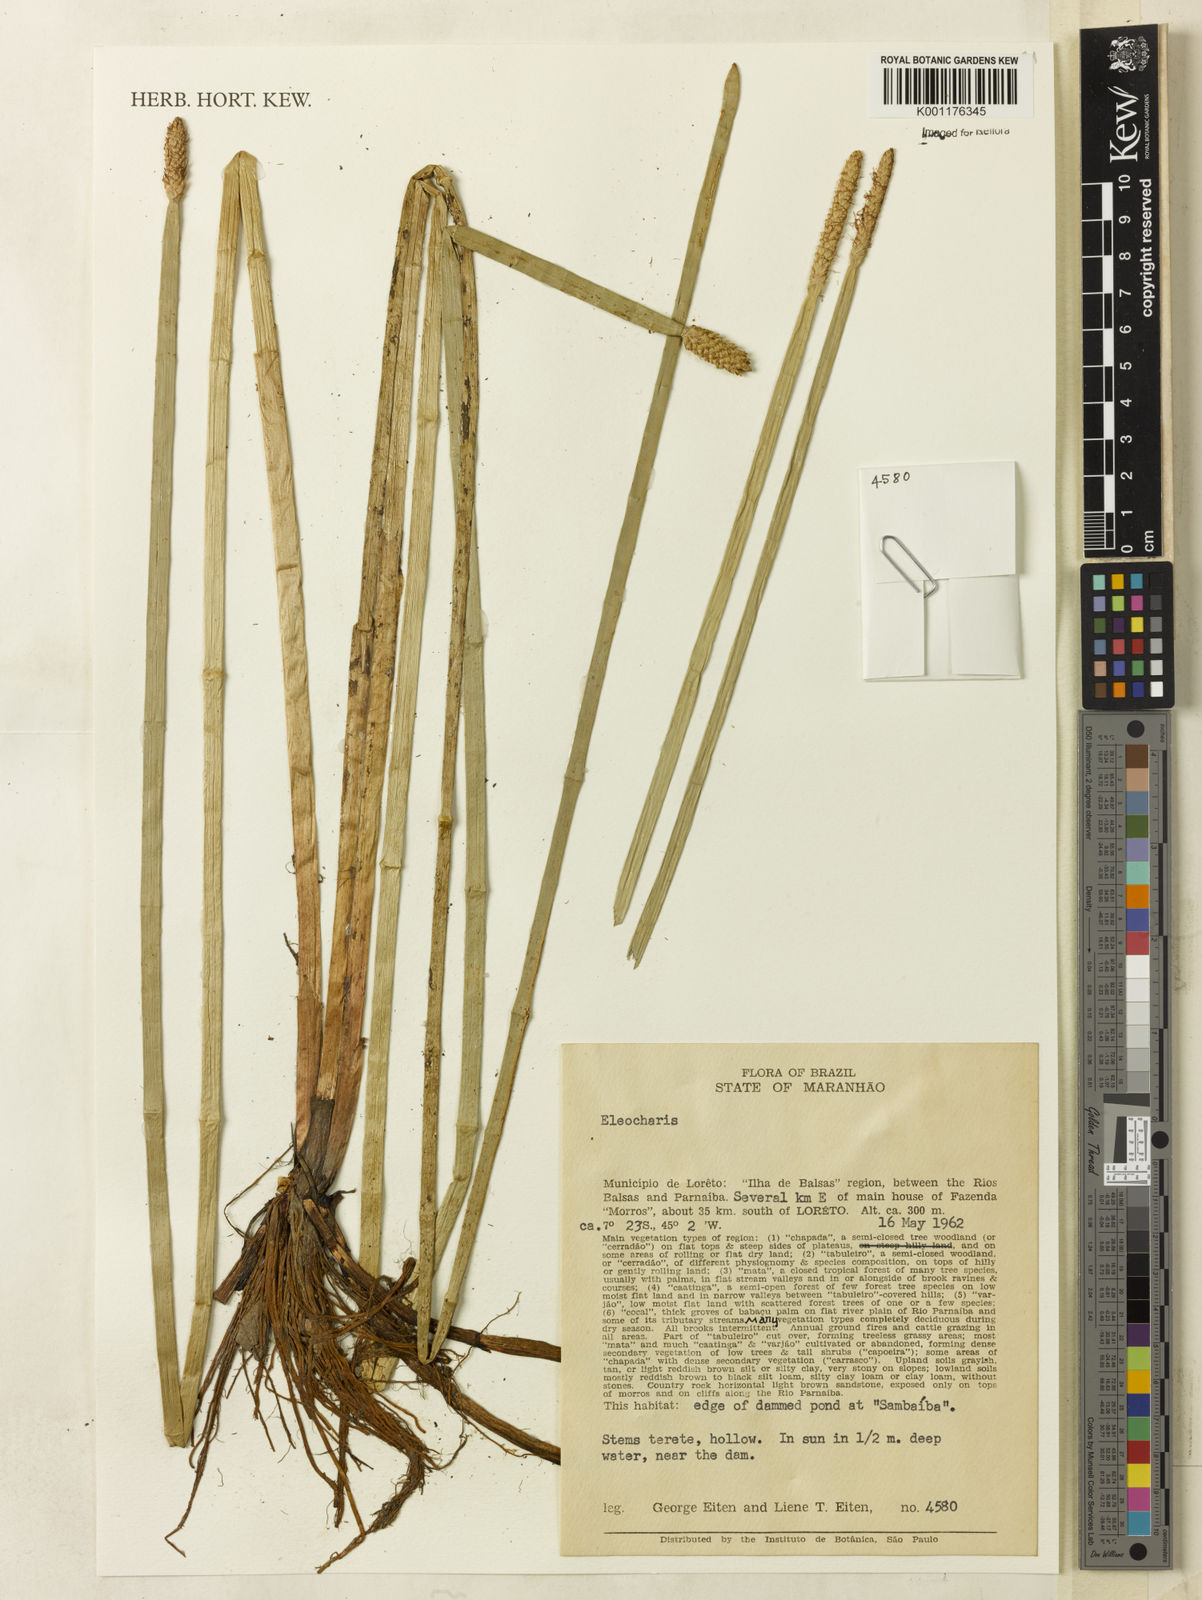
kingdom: Plantae
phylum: Tracheophyta
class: Liliopsida
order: Poales
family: Cyperaceae
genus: Eleocharis
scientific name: Eleocharis
